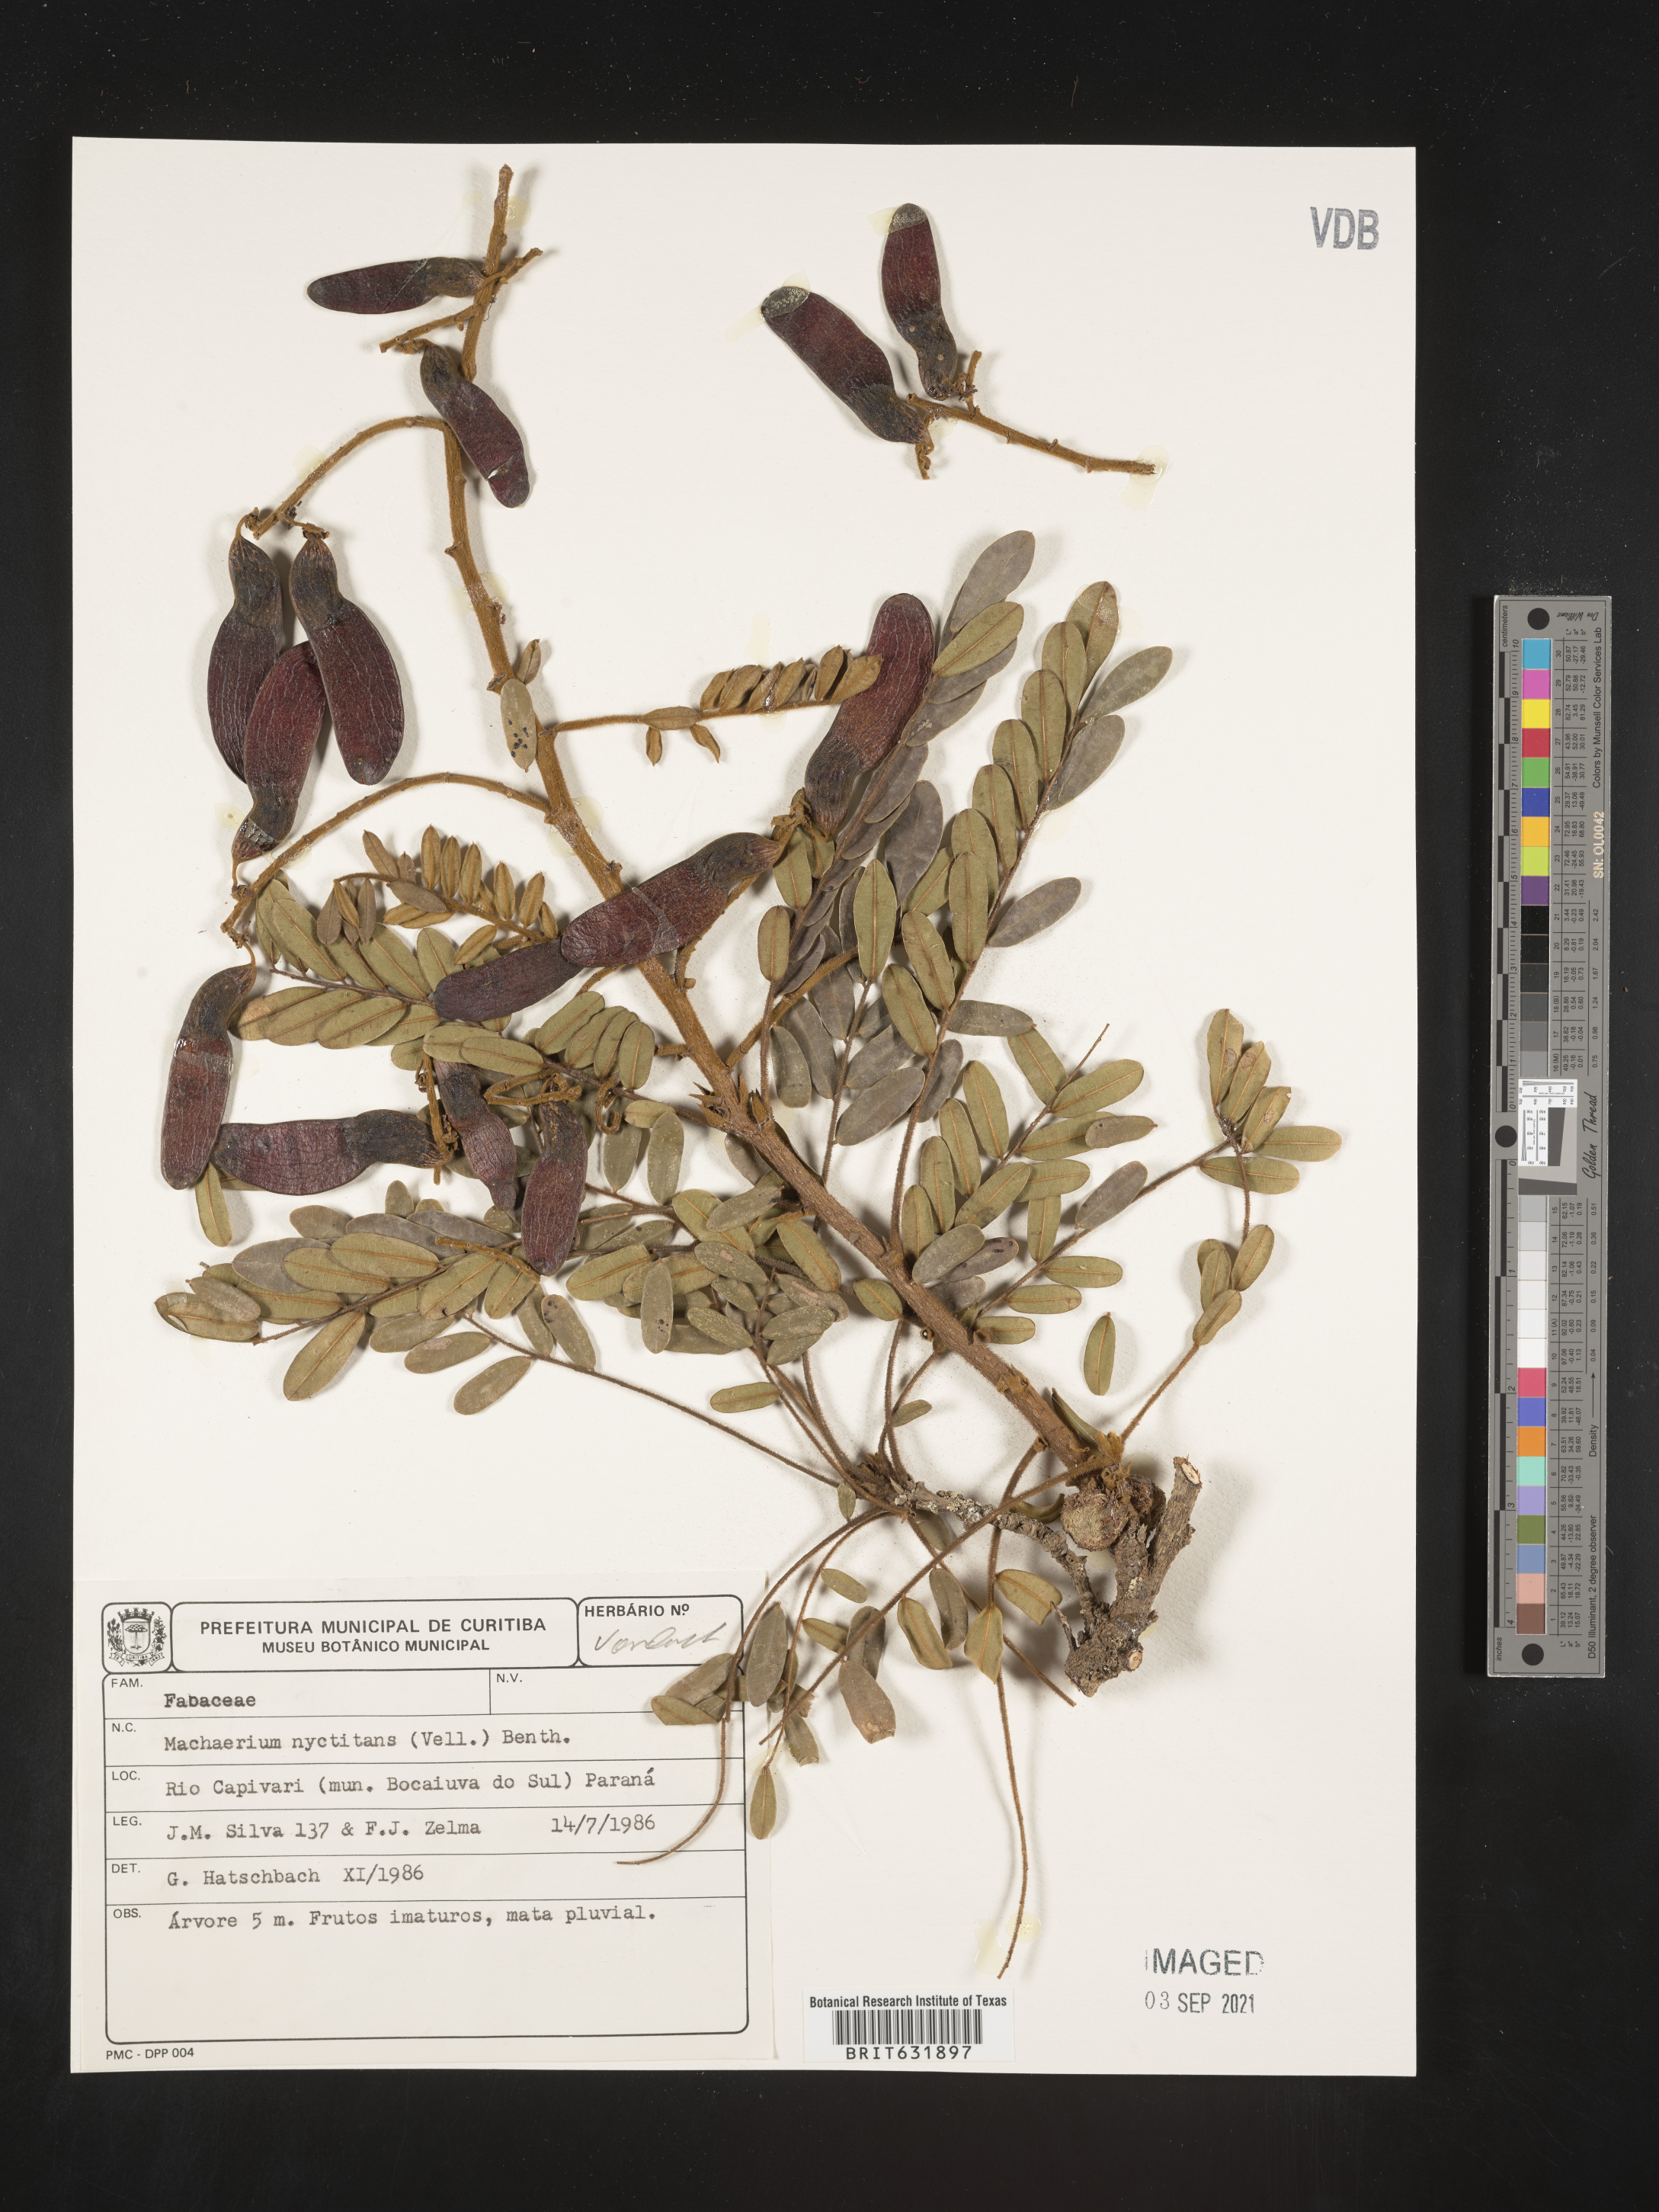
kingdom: Plantae
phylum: Tracheophyta
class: Magnoliopsida
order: Fabales
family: Fabaceae
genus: Machaerium
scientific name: Machaerium
